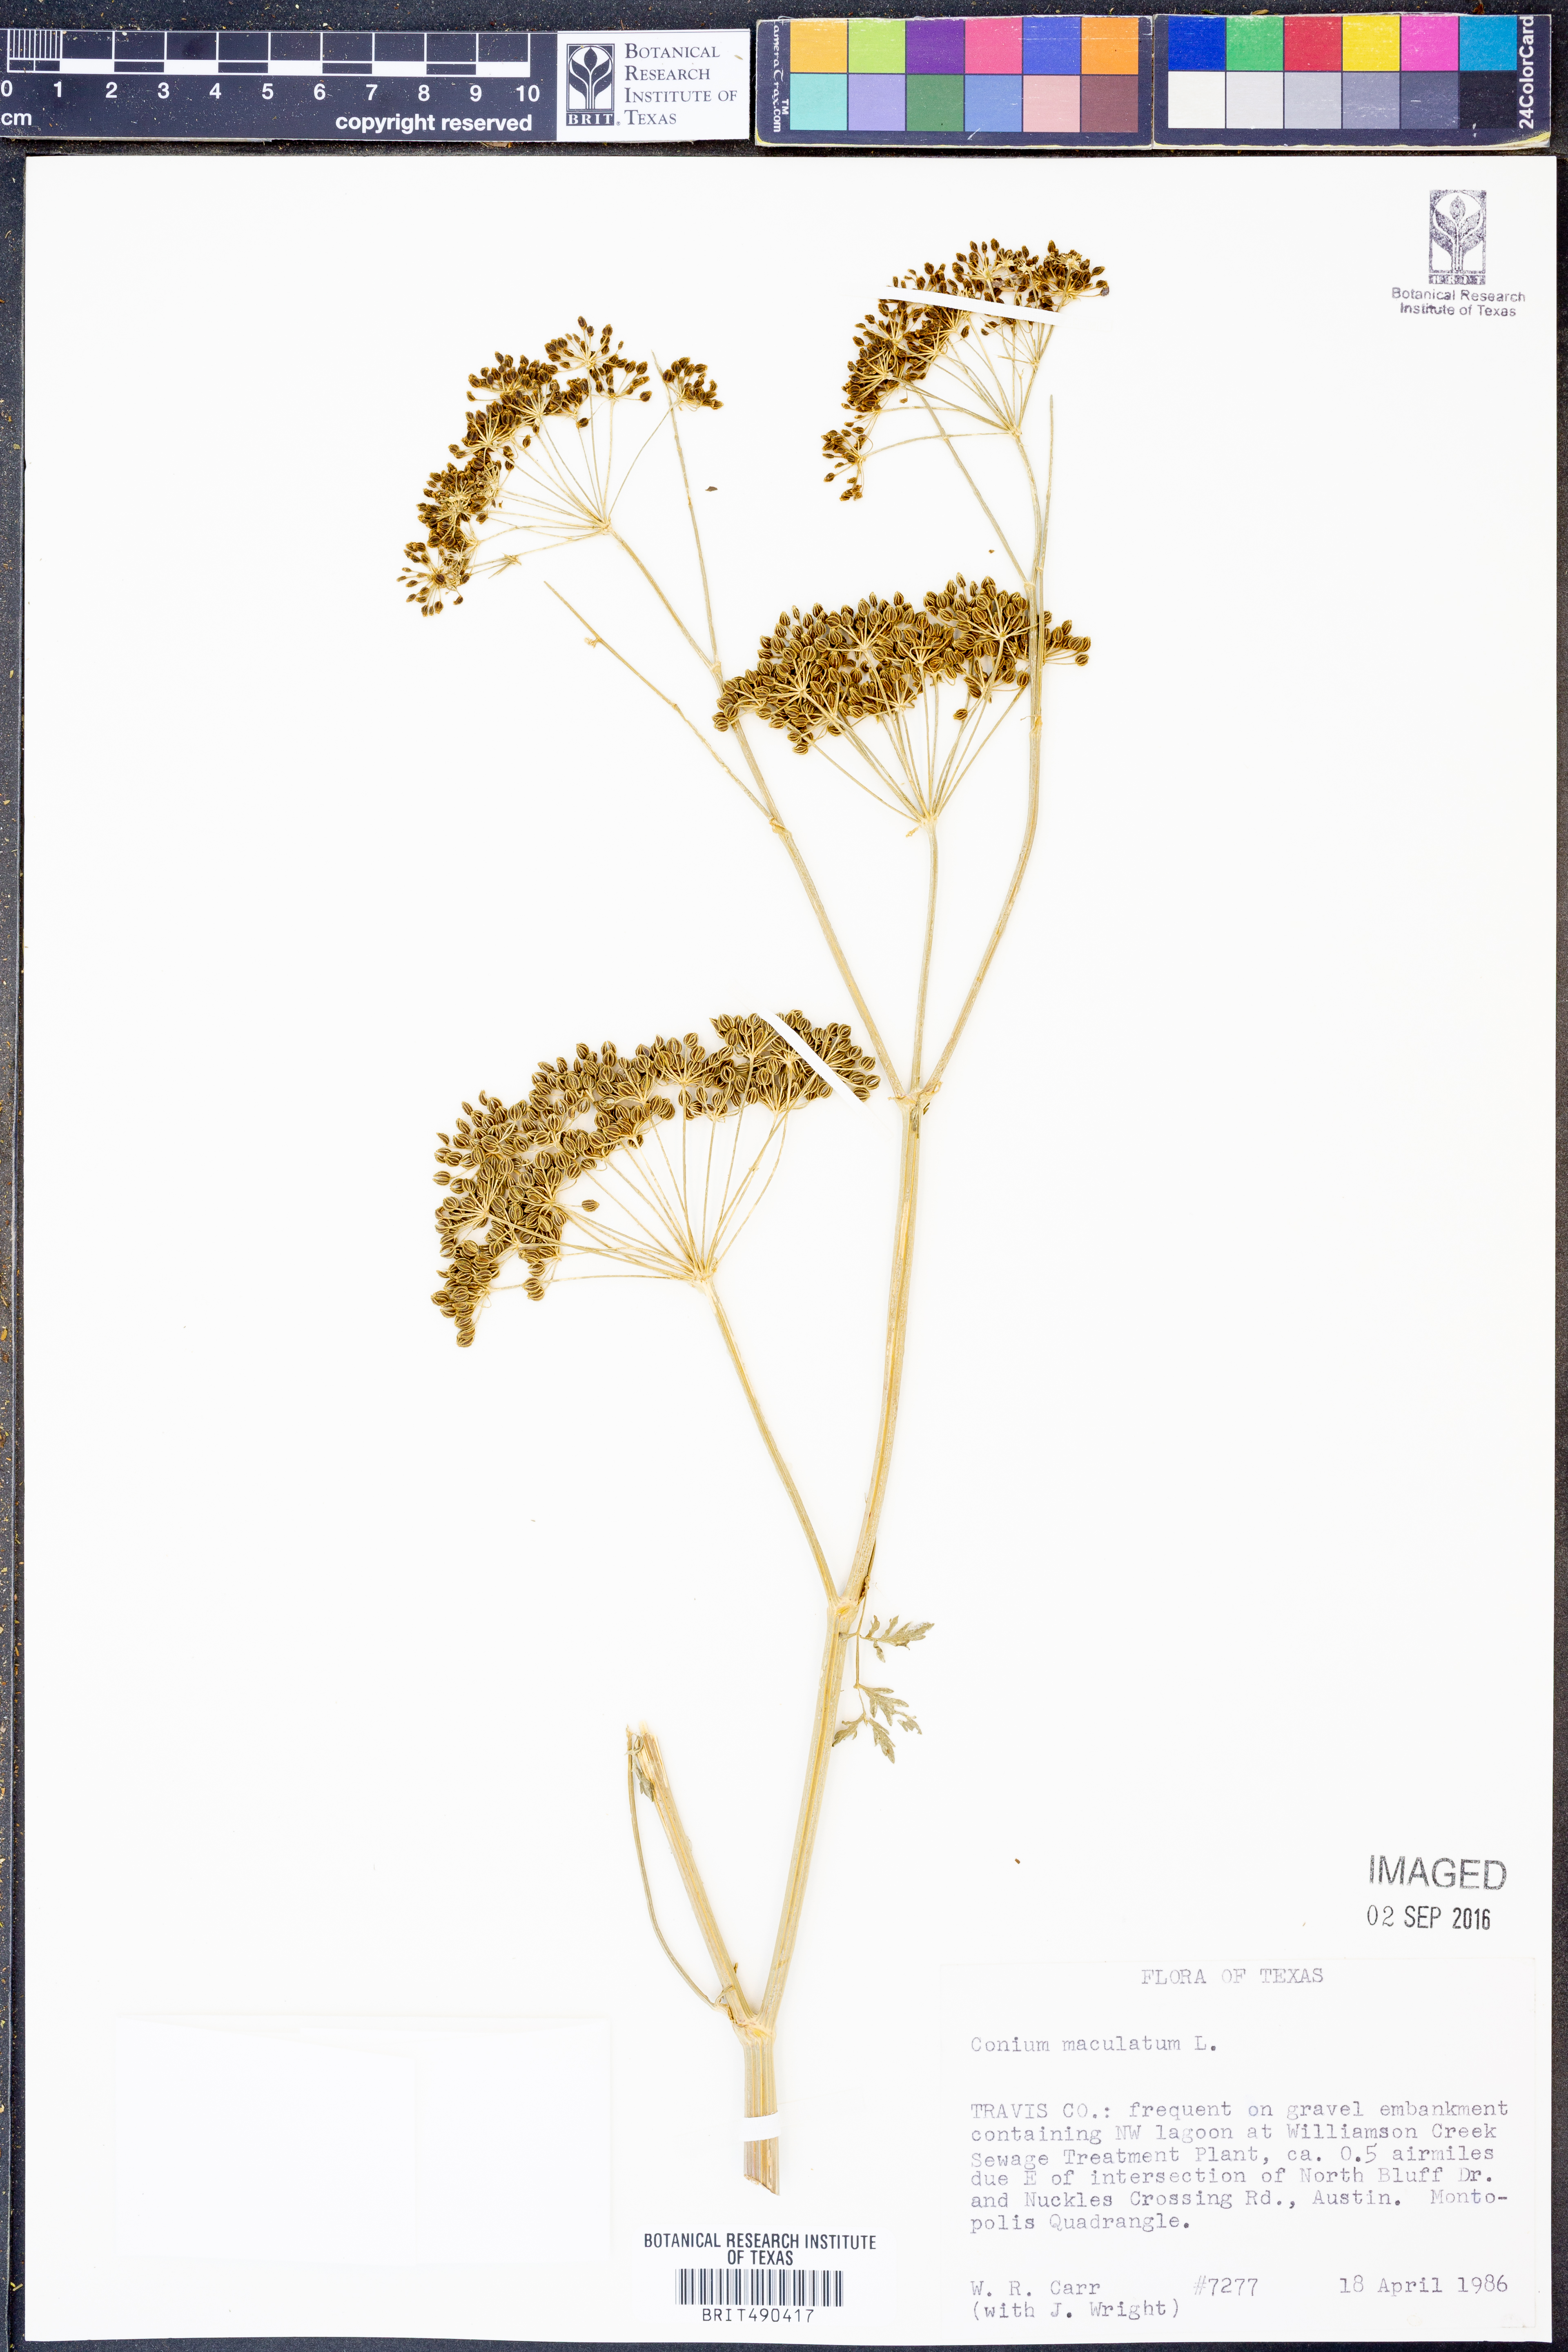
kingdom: Plantae
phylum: Tracheophyta
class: Magnoliopsida
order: Apiales
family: Apiaceae
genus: Conium
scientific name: Conium maculatum
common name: Hemlock
